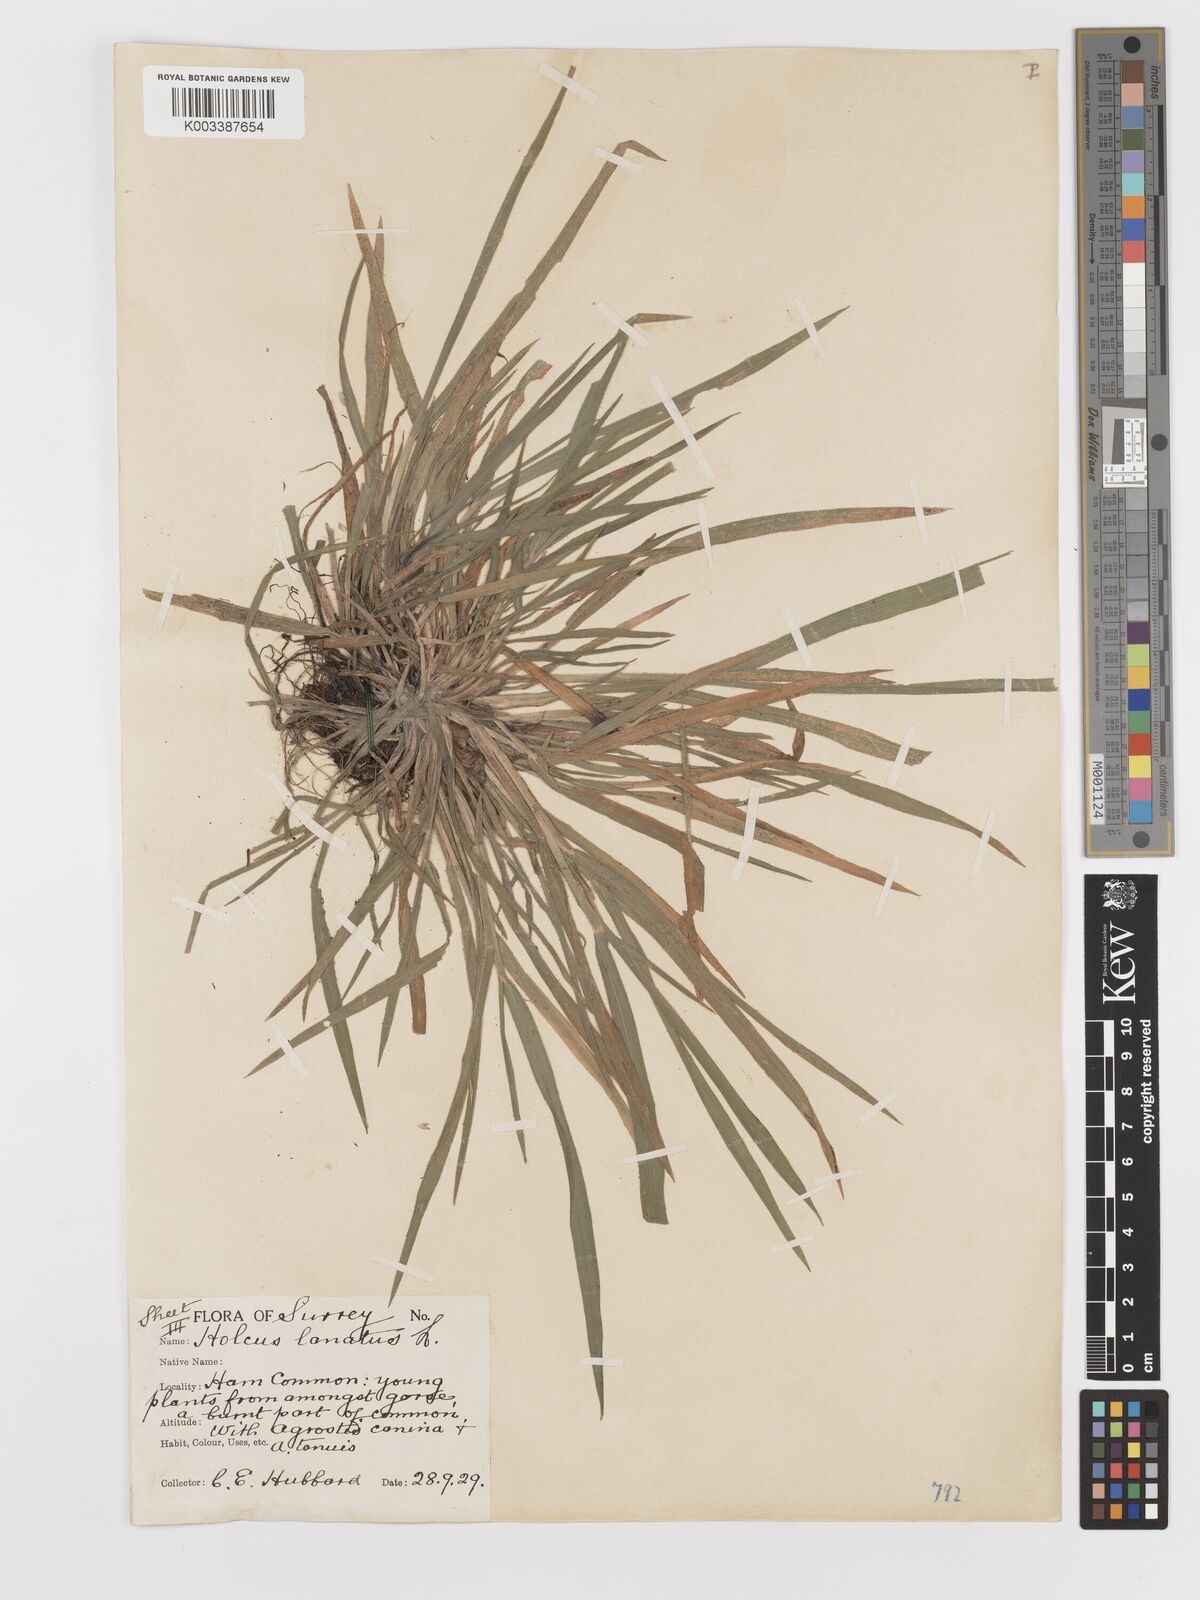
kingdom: Plantae
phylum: Tracheophyta
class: Liliopsida
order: Poales
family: Poaceae
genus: Holcus
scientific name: Holcus lanatus
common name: Yorkshire-fog
